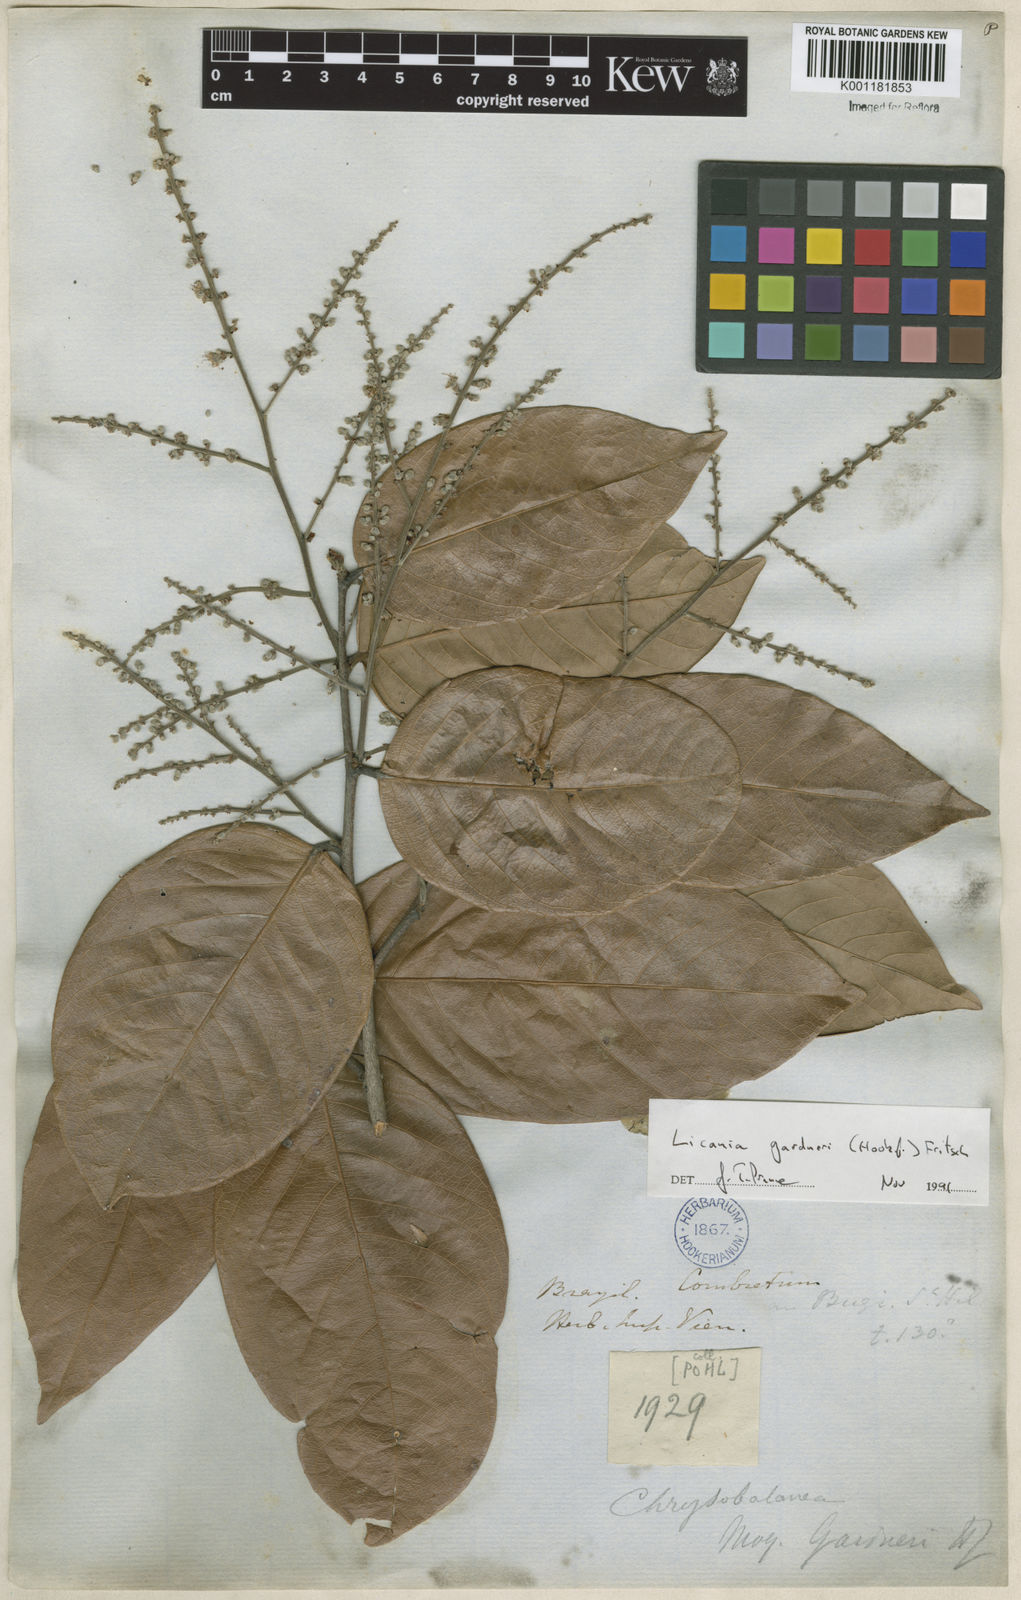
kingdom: Plantae
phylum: Tracheophyta
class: Magnoliopsida
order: Malpighiales
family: Chrysobalanaceae
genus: Leptobalanus
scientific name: Leptobalanus gardneri
